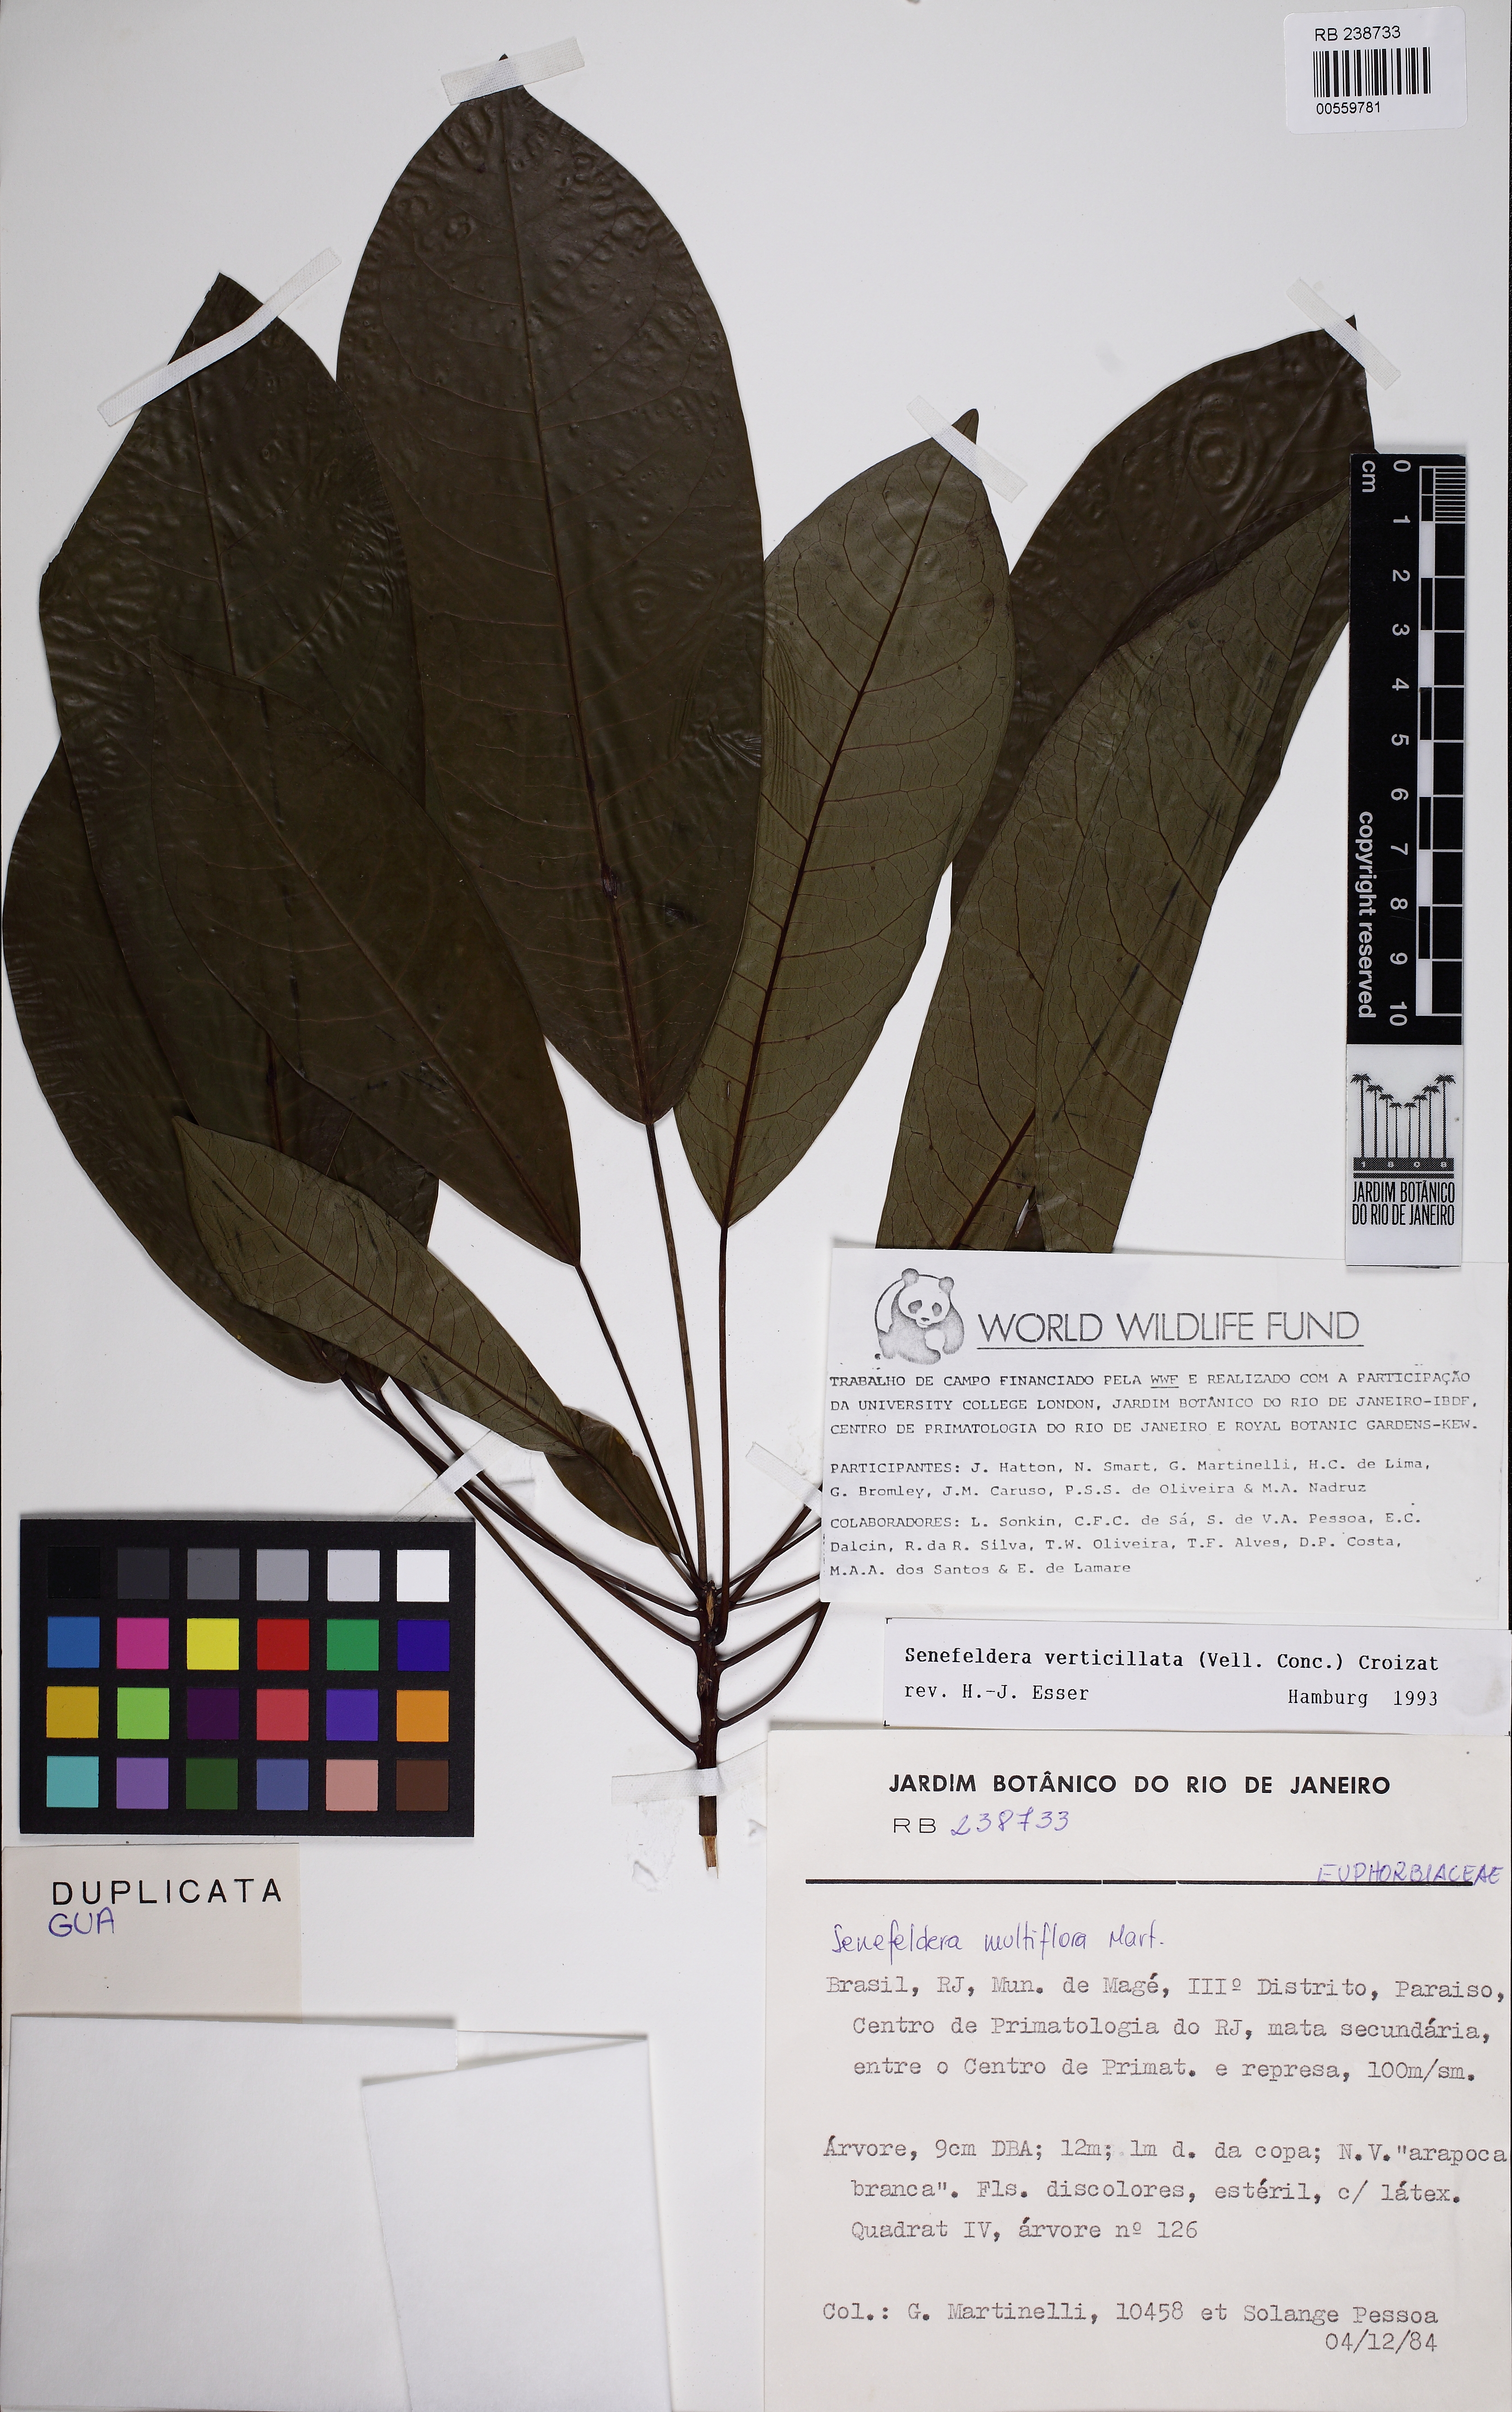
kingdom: Plantae
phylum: Tracheophyta
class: Magnoliopsida
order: Malpighiales
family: Euphorbiaceae
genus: Senefeldera
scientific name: Senefeldera verticillata
